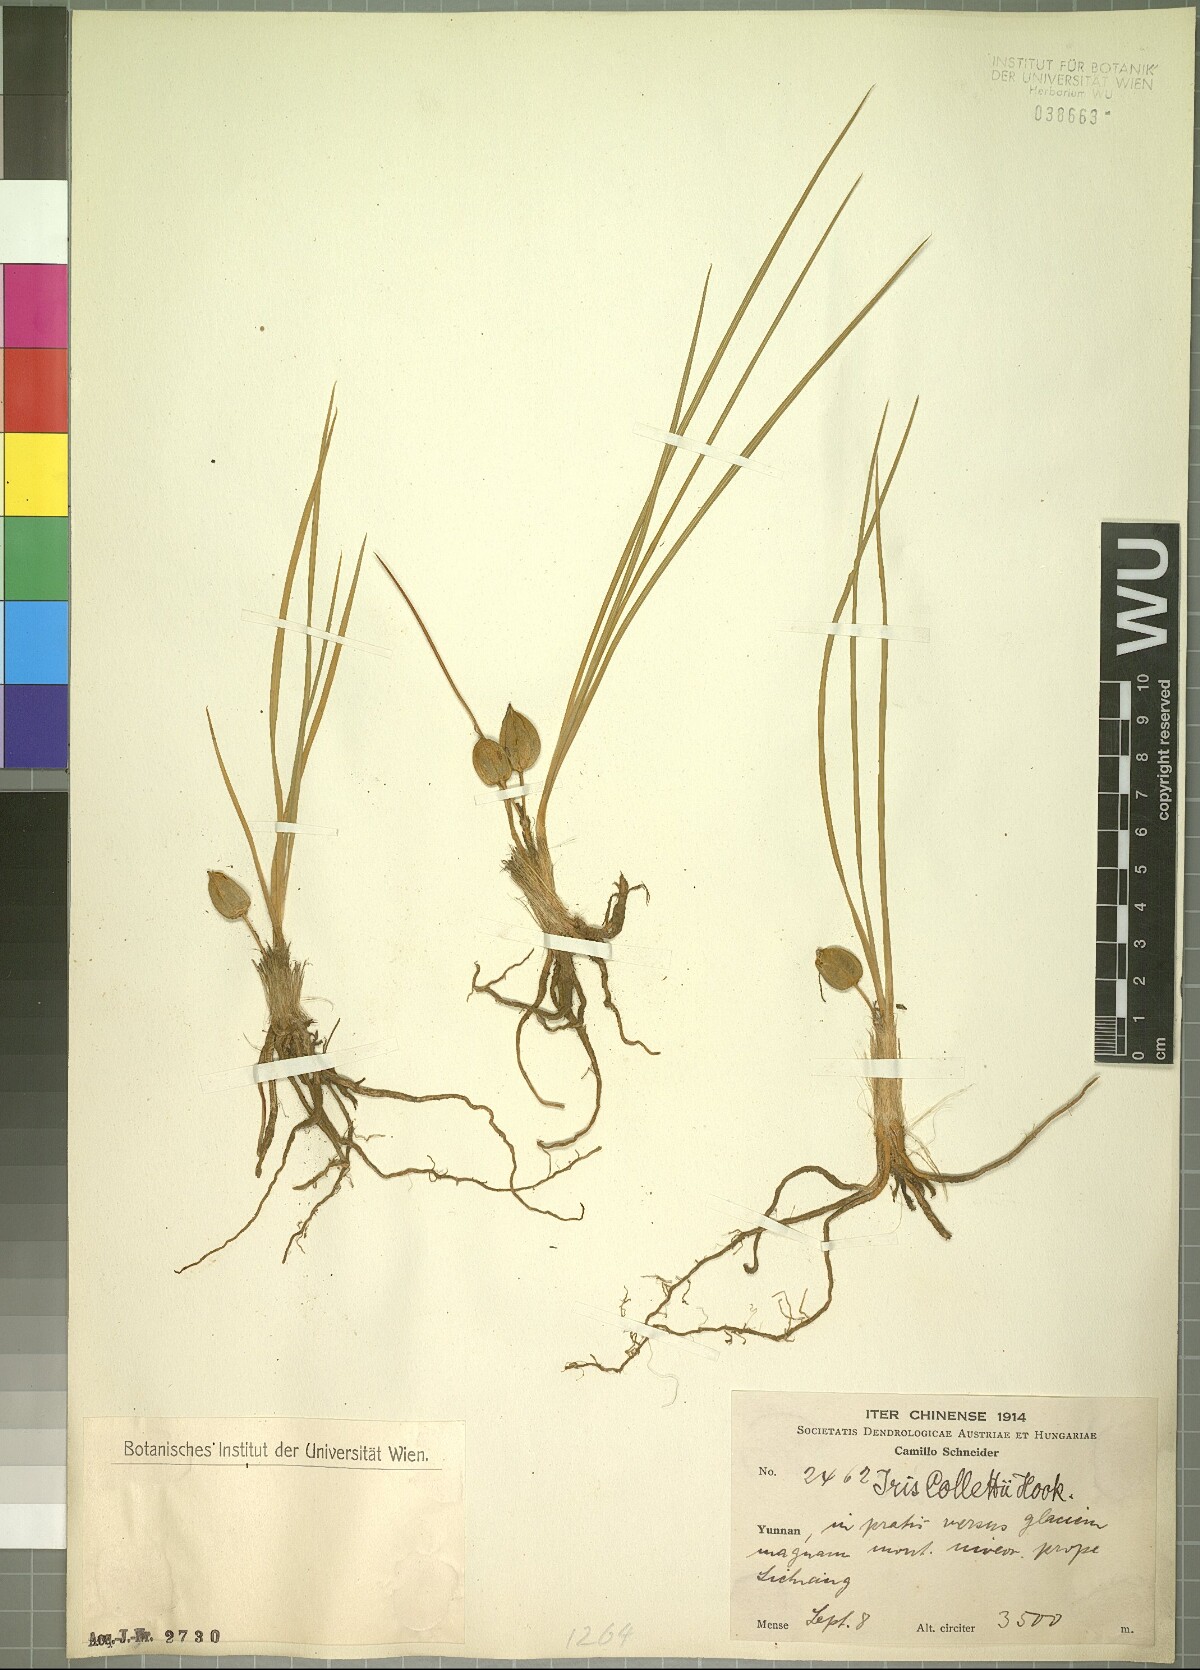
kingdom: Plantae
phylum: Tracheophyta
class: Liliopsida
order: Asparagales
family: Iridaceae
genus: Iris
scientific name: Iris collettii
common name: Plateau iris
